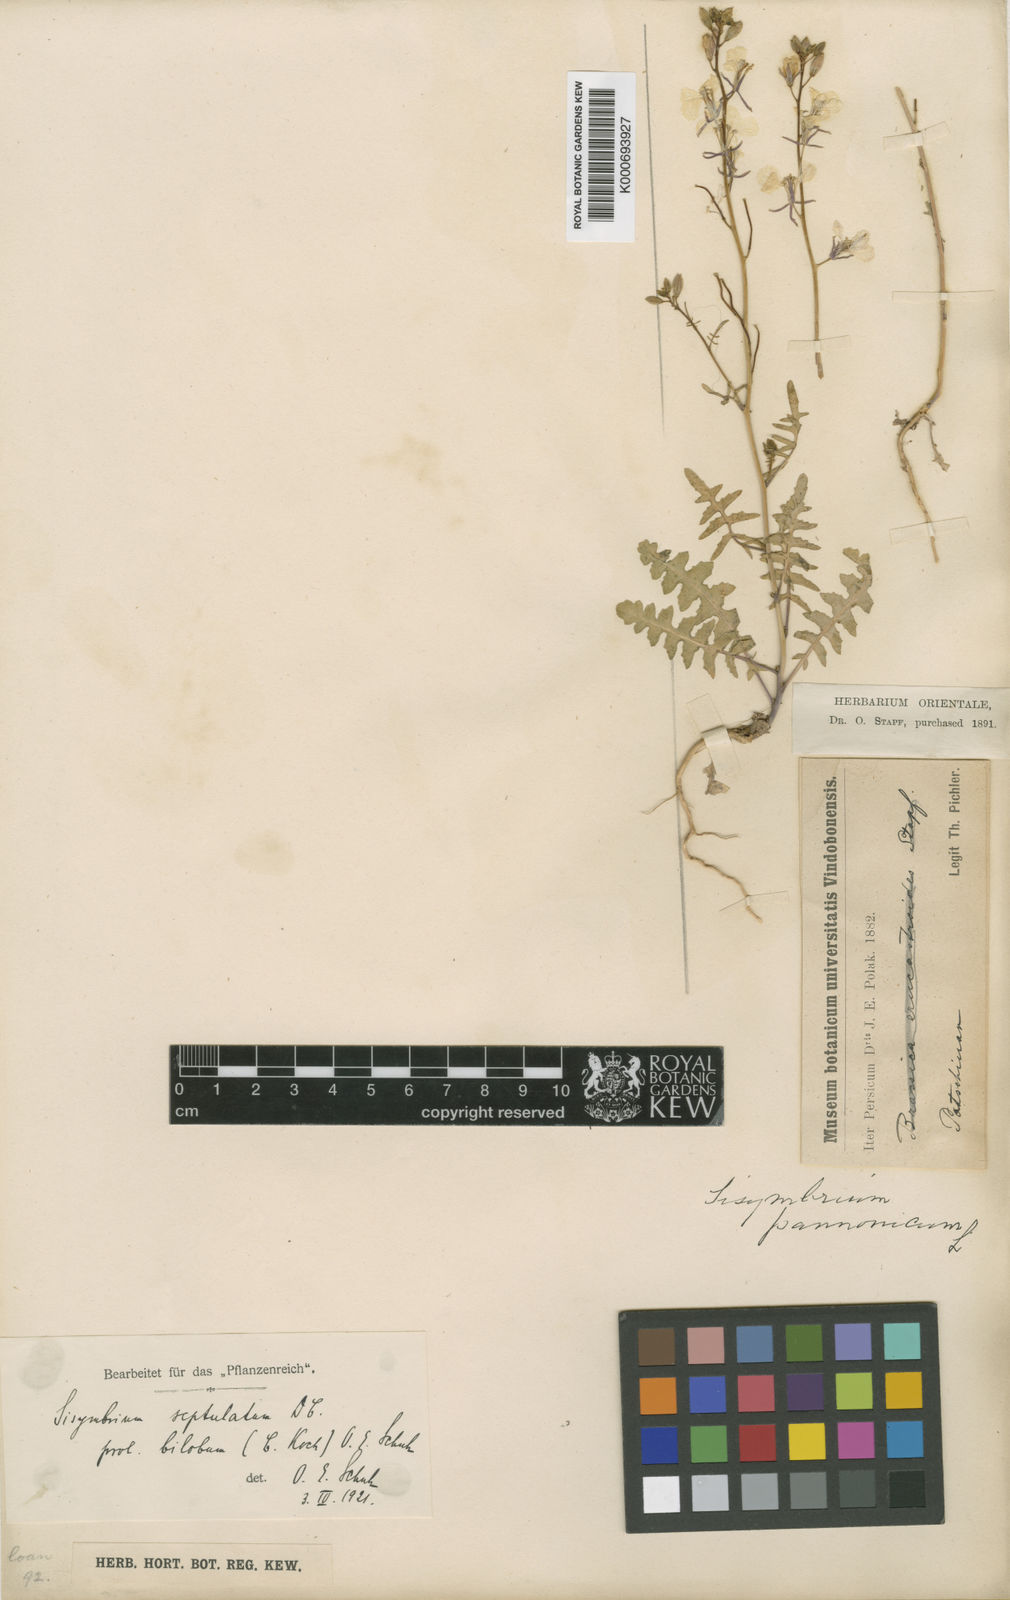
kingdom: Plantae
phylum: Tracheophyta
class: Magnoliopsida
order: Brassicales
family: Brassicaceae
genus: Sisymbrium
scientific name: Sisymbrium septulatum
